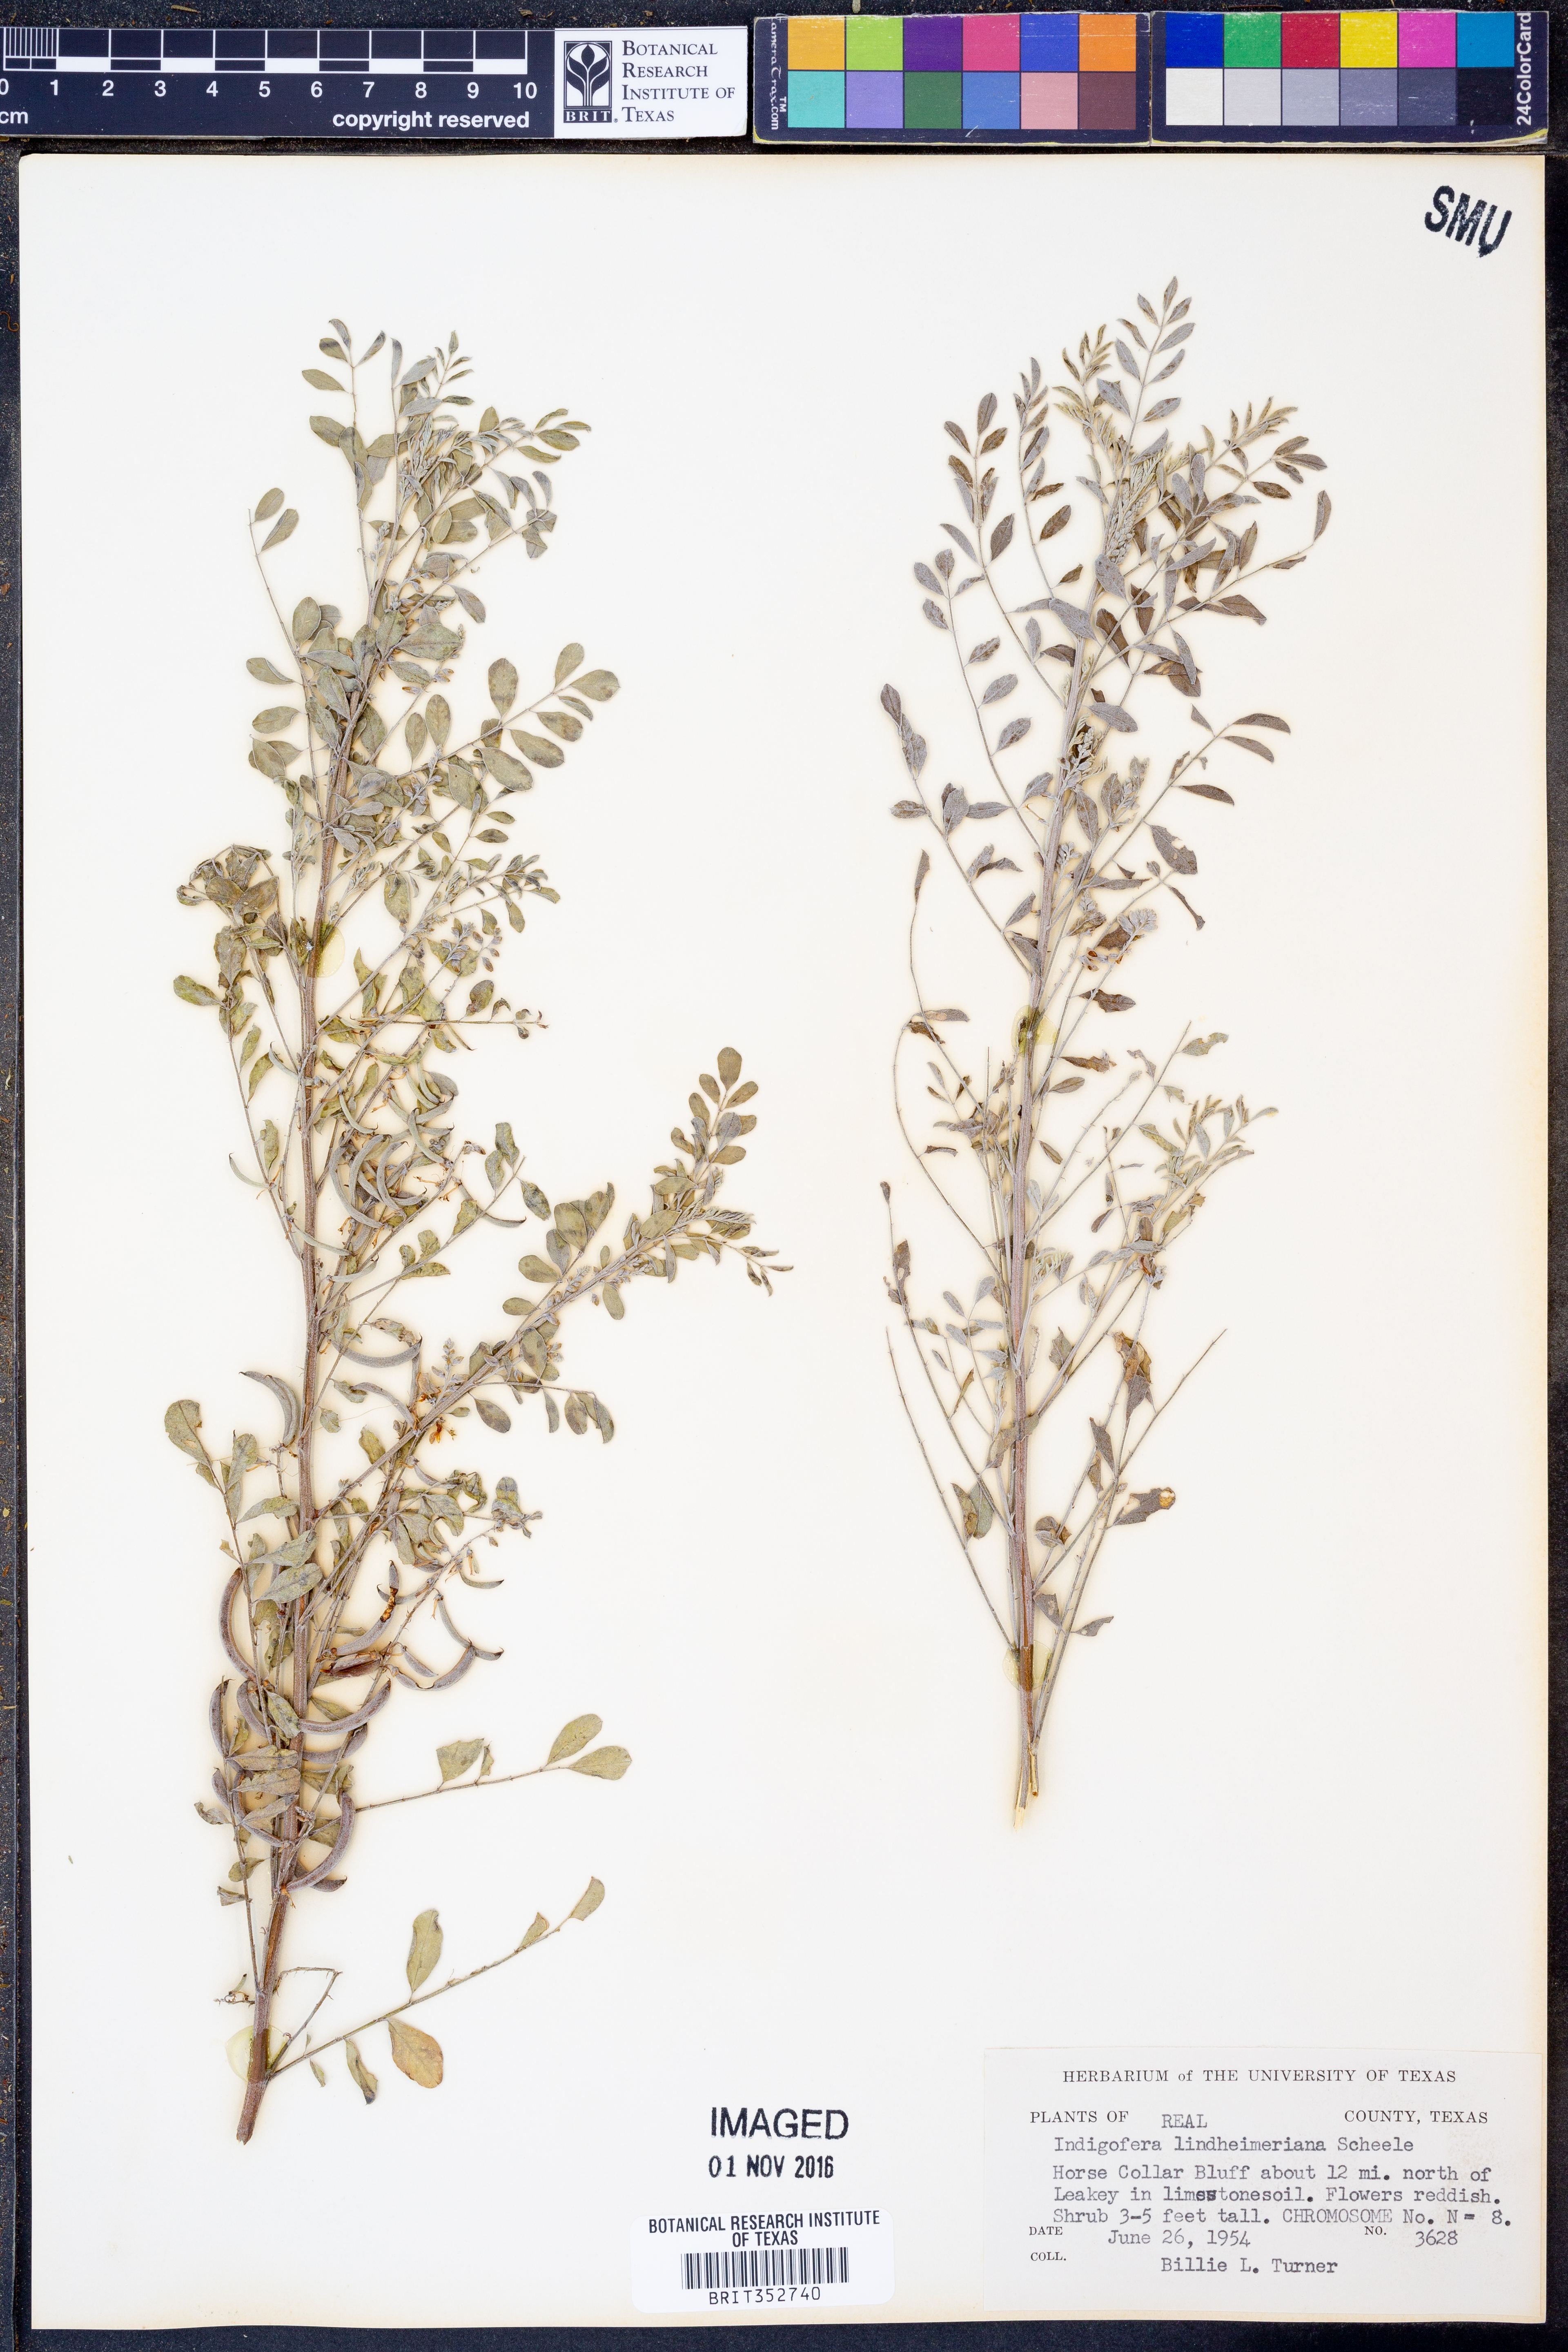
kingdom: Plantae
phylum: Tracheophyta
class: Magnoliopsida
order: Fabales
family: Fabaceae
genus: Indigofera
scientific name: Indigofera lindheimeriana
